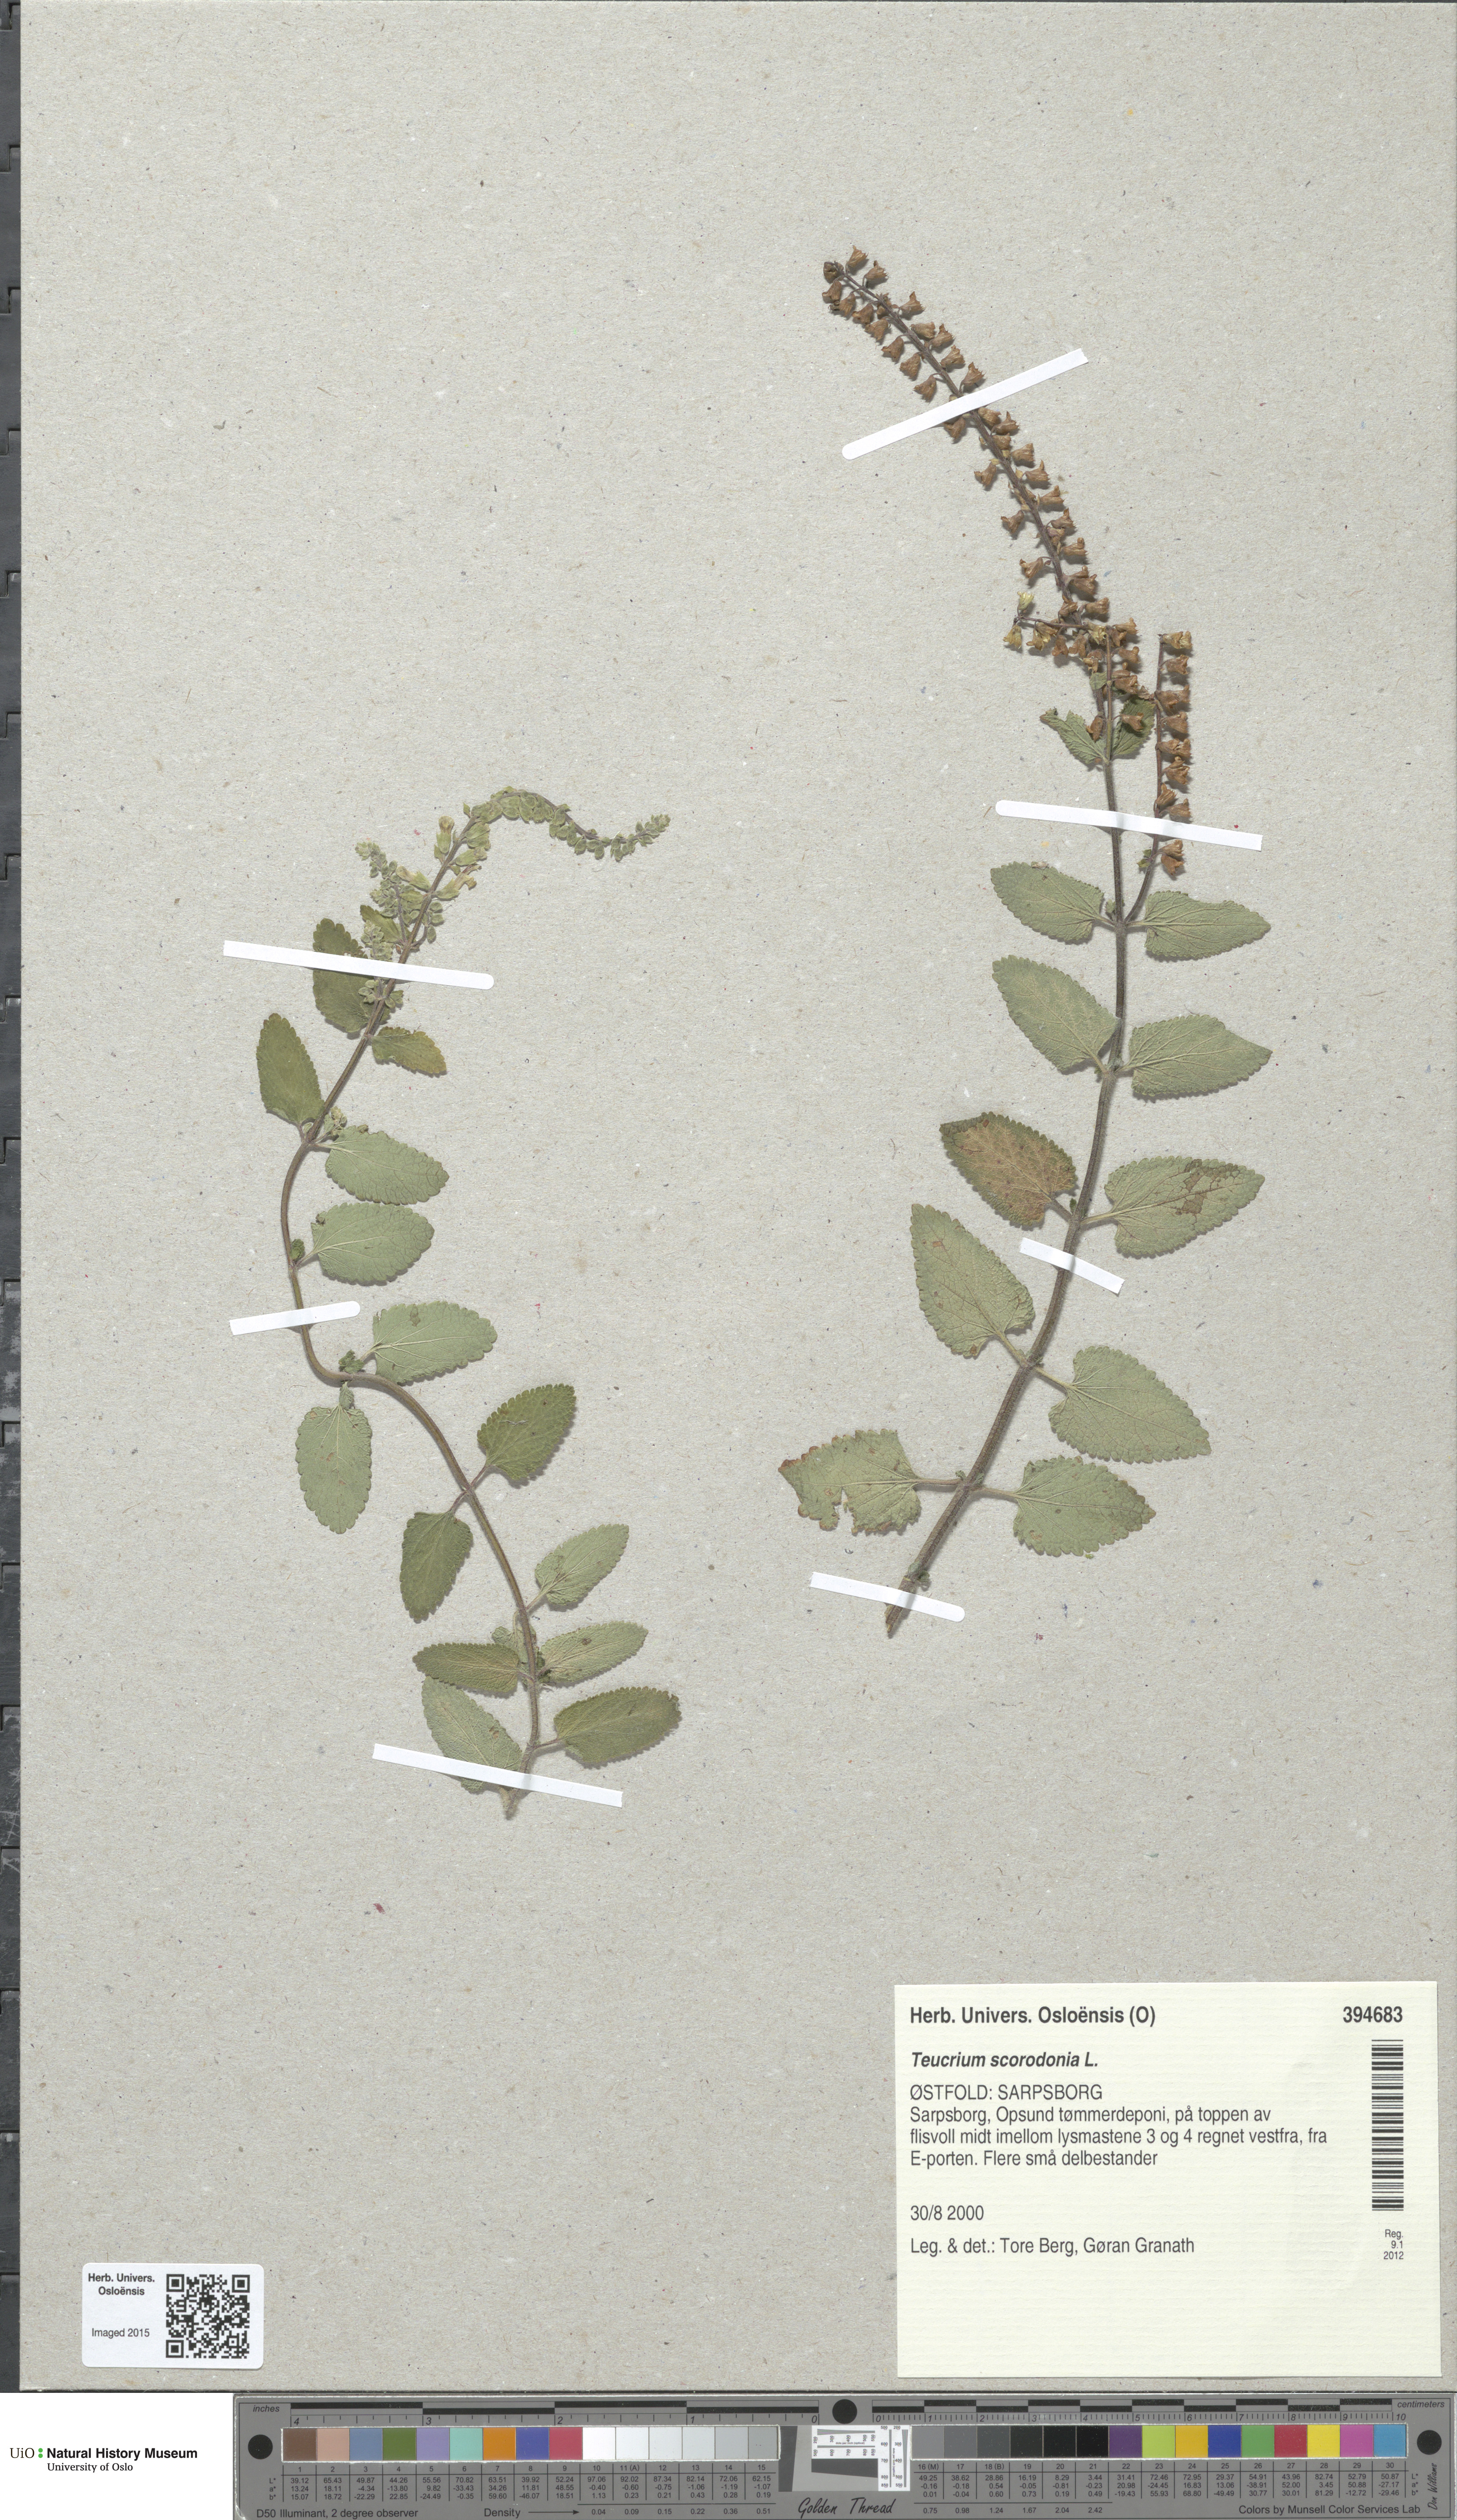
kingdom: Plantae
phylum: Tracheophyta
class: Magnoliopsida
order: Lamiales
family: Lamiaceae
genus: Teucrium
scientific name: Teucrium scorodonia
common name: Woodland germander
